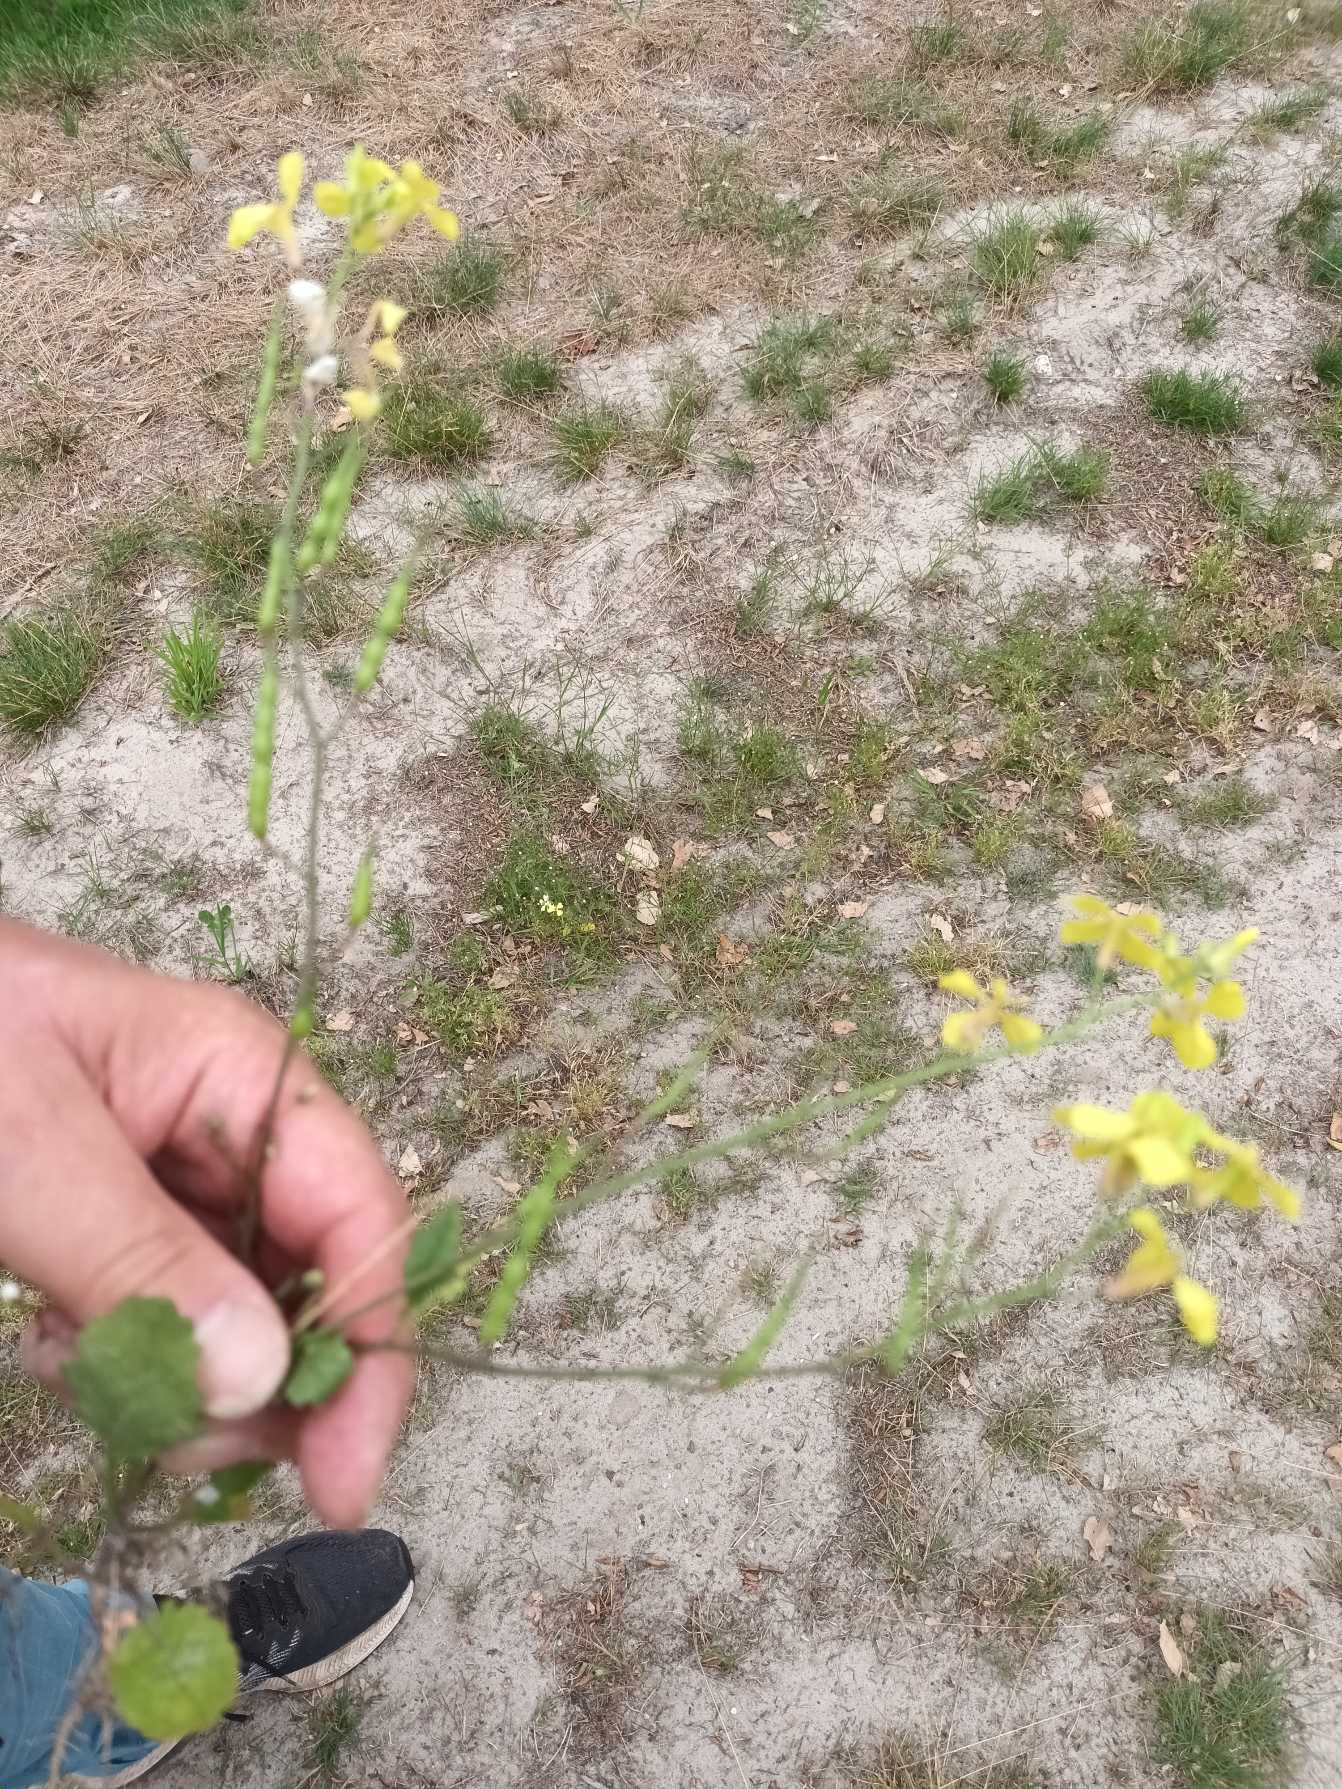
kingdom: Plantae
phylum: Tracheophyta
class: Magnoliopsida
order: Brassicales
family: Brassicaceae
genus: Raphanus
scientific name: Raphanus raphanistrum
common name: Kiddike
